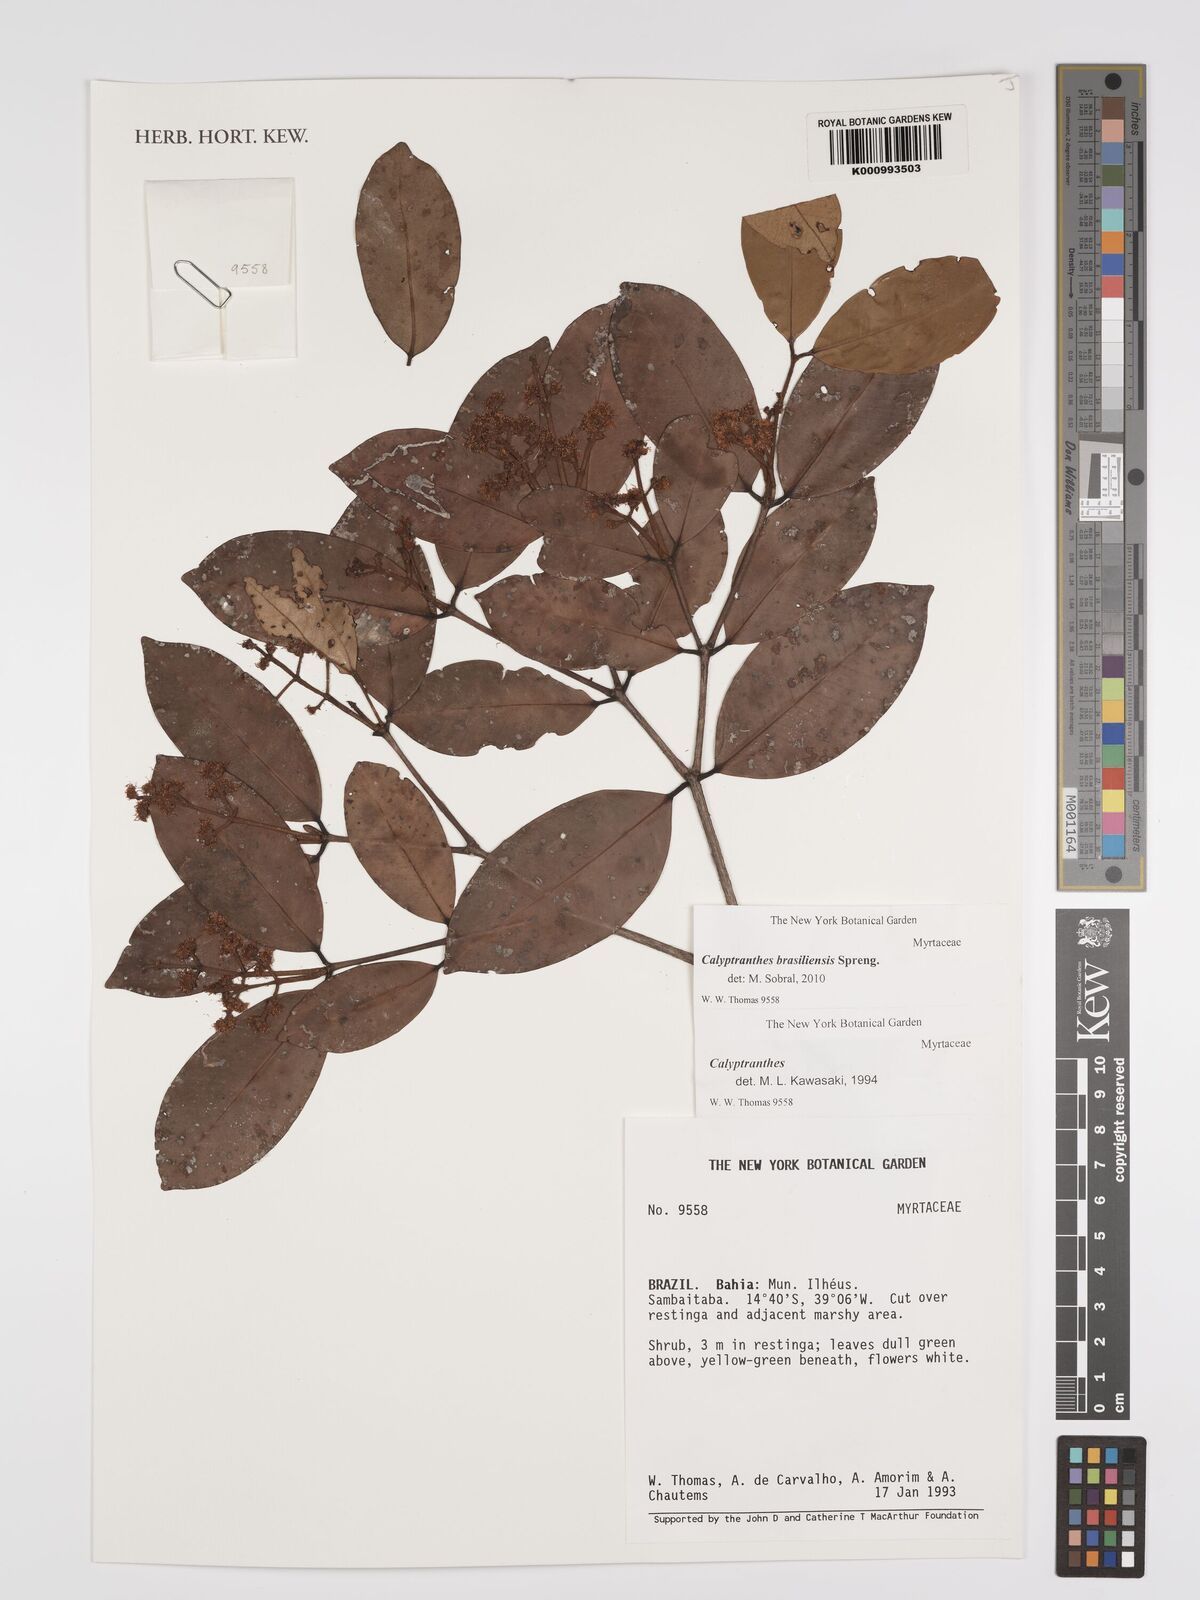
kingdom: Plantae
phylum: Tracheophyta
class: Magnoliopsida
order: Myrtales
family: Myrtaceae
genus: Myrcia
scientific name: Myrcia neobrasiliensis
